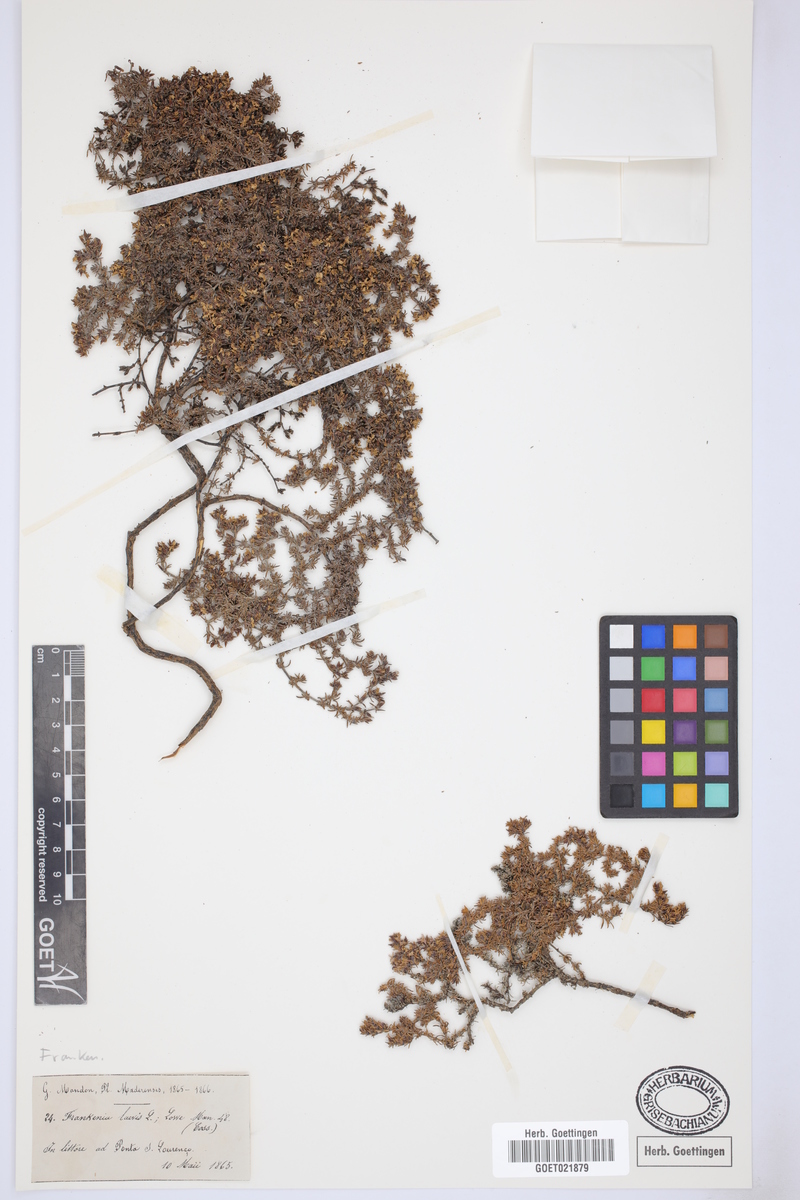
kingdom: Plantae
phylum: Tracheophyta
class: Magnoliopsida
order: Caryophyllales
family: Frankeniaceae
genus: Frankenia
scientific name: Frankenia laevis
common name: Sea-heath
